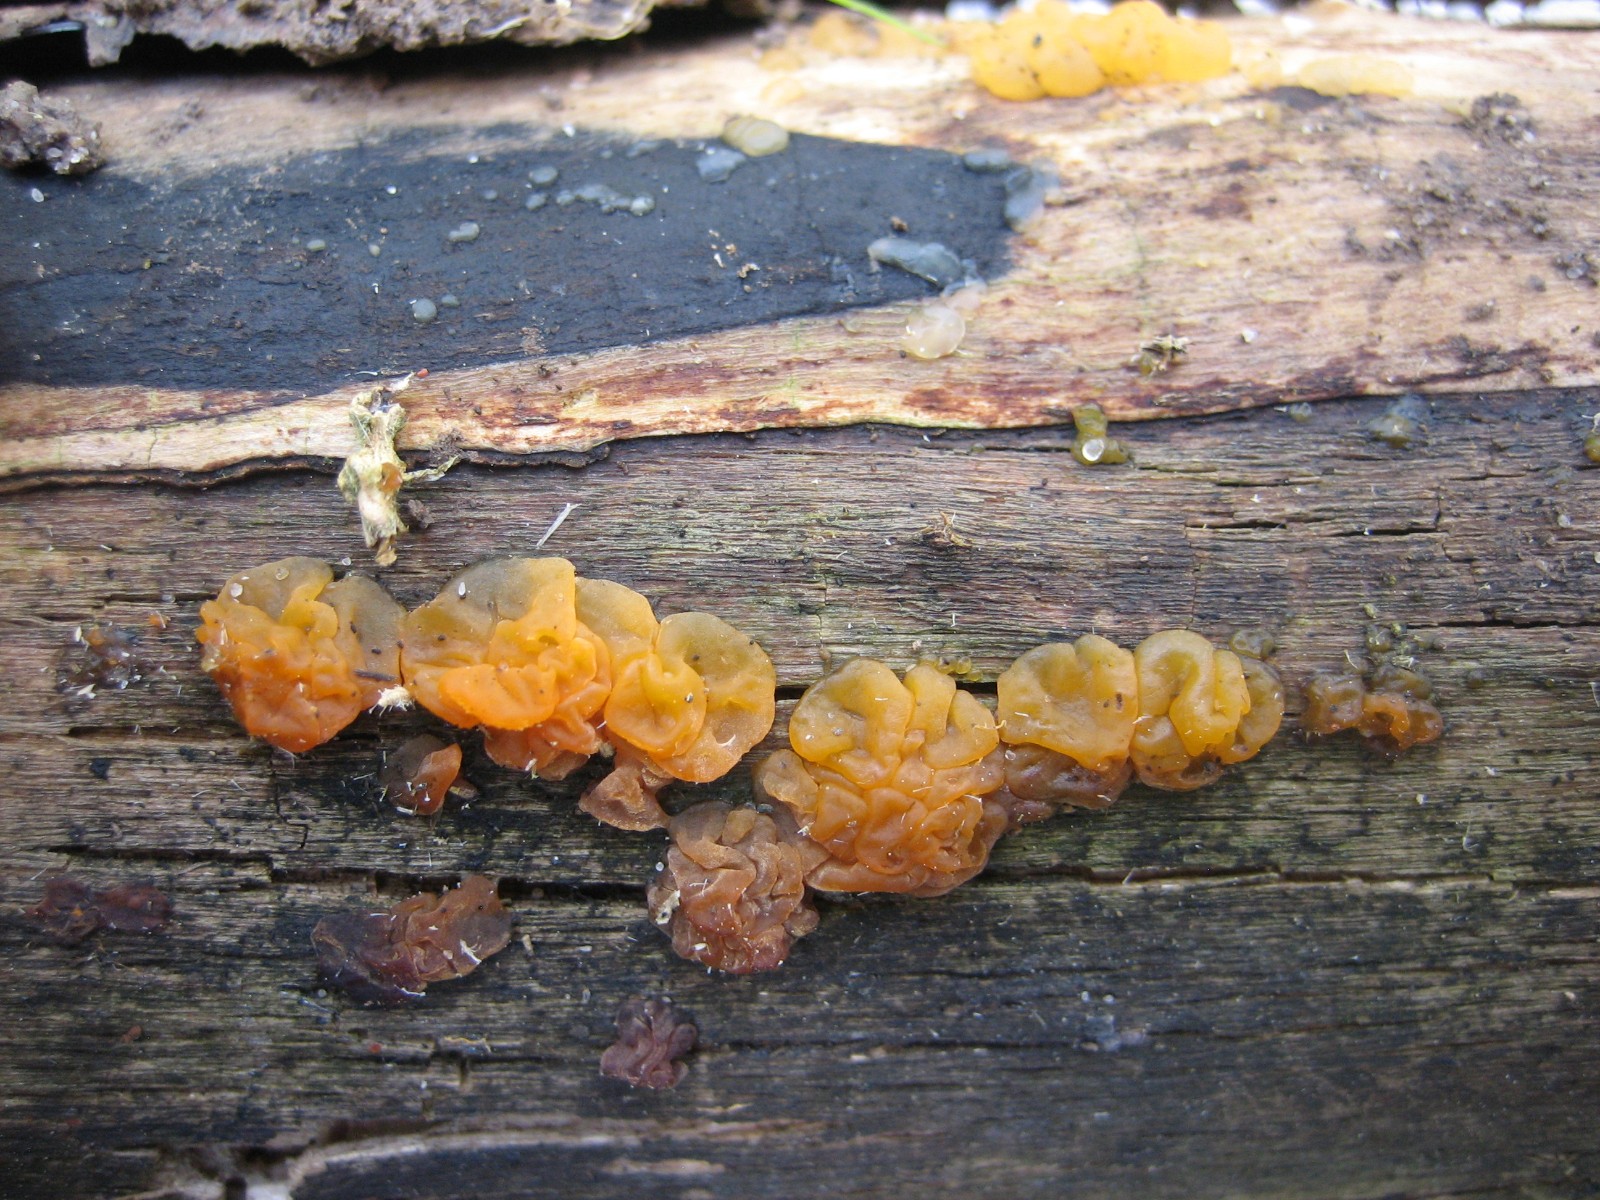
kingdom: Fungi
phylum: Basidiomycota
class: Dacrymycetes
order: Dacrymycetales
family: Dacrymycetaceae
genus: Dacrymyces
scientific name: Dacrymyces lacrymalis
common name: rynket tåresvamp
